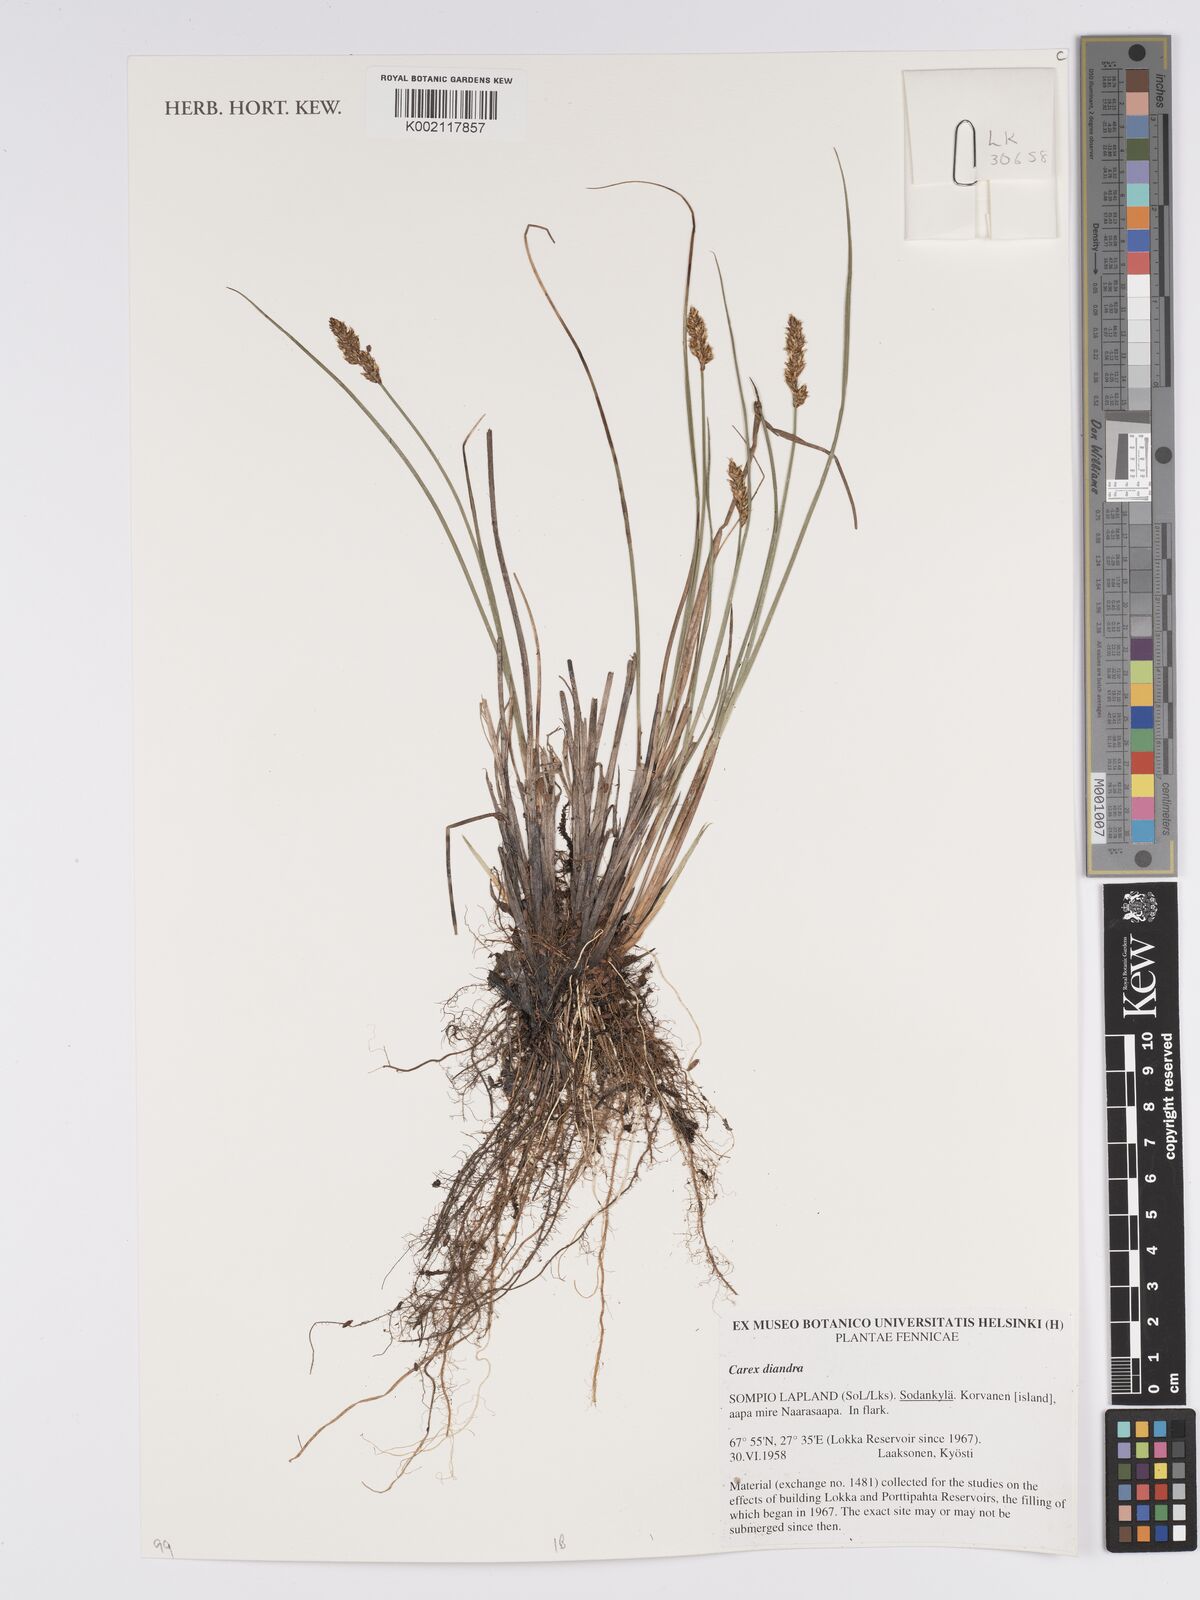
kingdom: Plantae
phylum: Tracheophyta
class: Liliopsida
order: Poales
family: Cyperaceae
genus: Carex
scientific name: Carex diandra
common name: Lesser tussock-sedge
